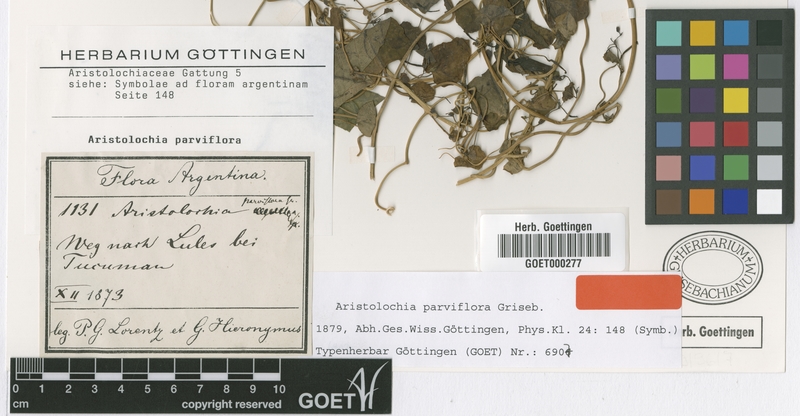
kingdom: Plantae
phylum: Tracheophyta
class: Magnoliopsida
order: Piperales
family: Aristolochiaceae
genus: Aristolochia
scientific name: Aristolochia argentina
